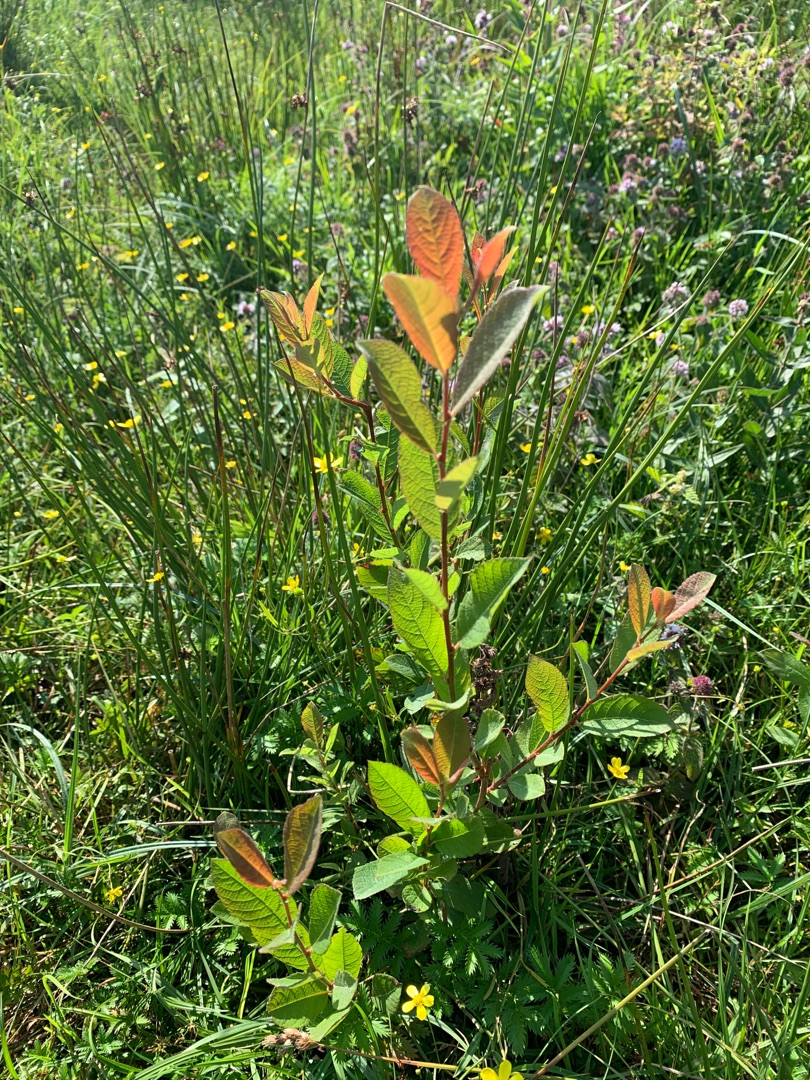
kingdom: Plantae
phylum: Tracheophyta
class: Magnoliopsida
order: Malpighiales
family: Salicaceae
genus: Salix
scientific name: Salix cinerea
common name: Grå-pil
